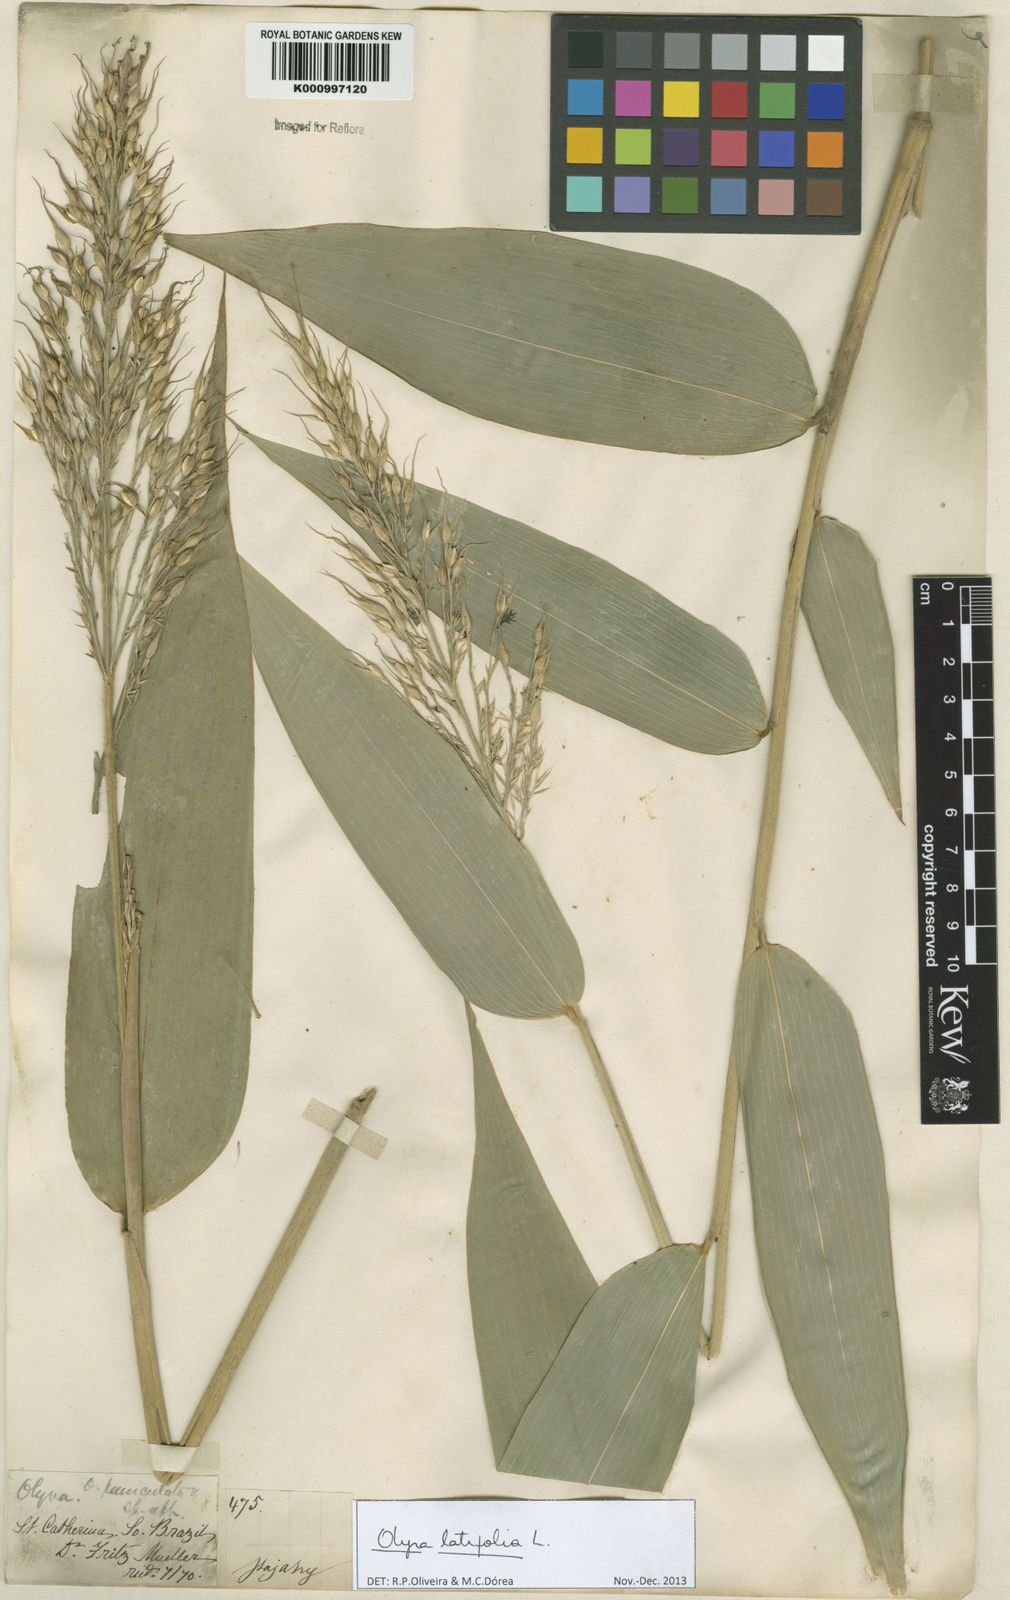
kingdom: Plantae
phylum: Tracheophyta
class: Liliopsida
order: Poales
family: Poaceae
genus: Olyra
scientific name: Olyra latifolia
